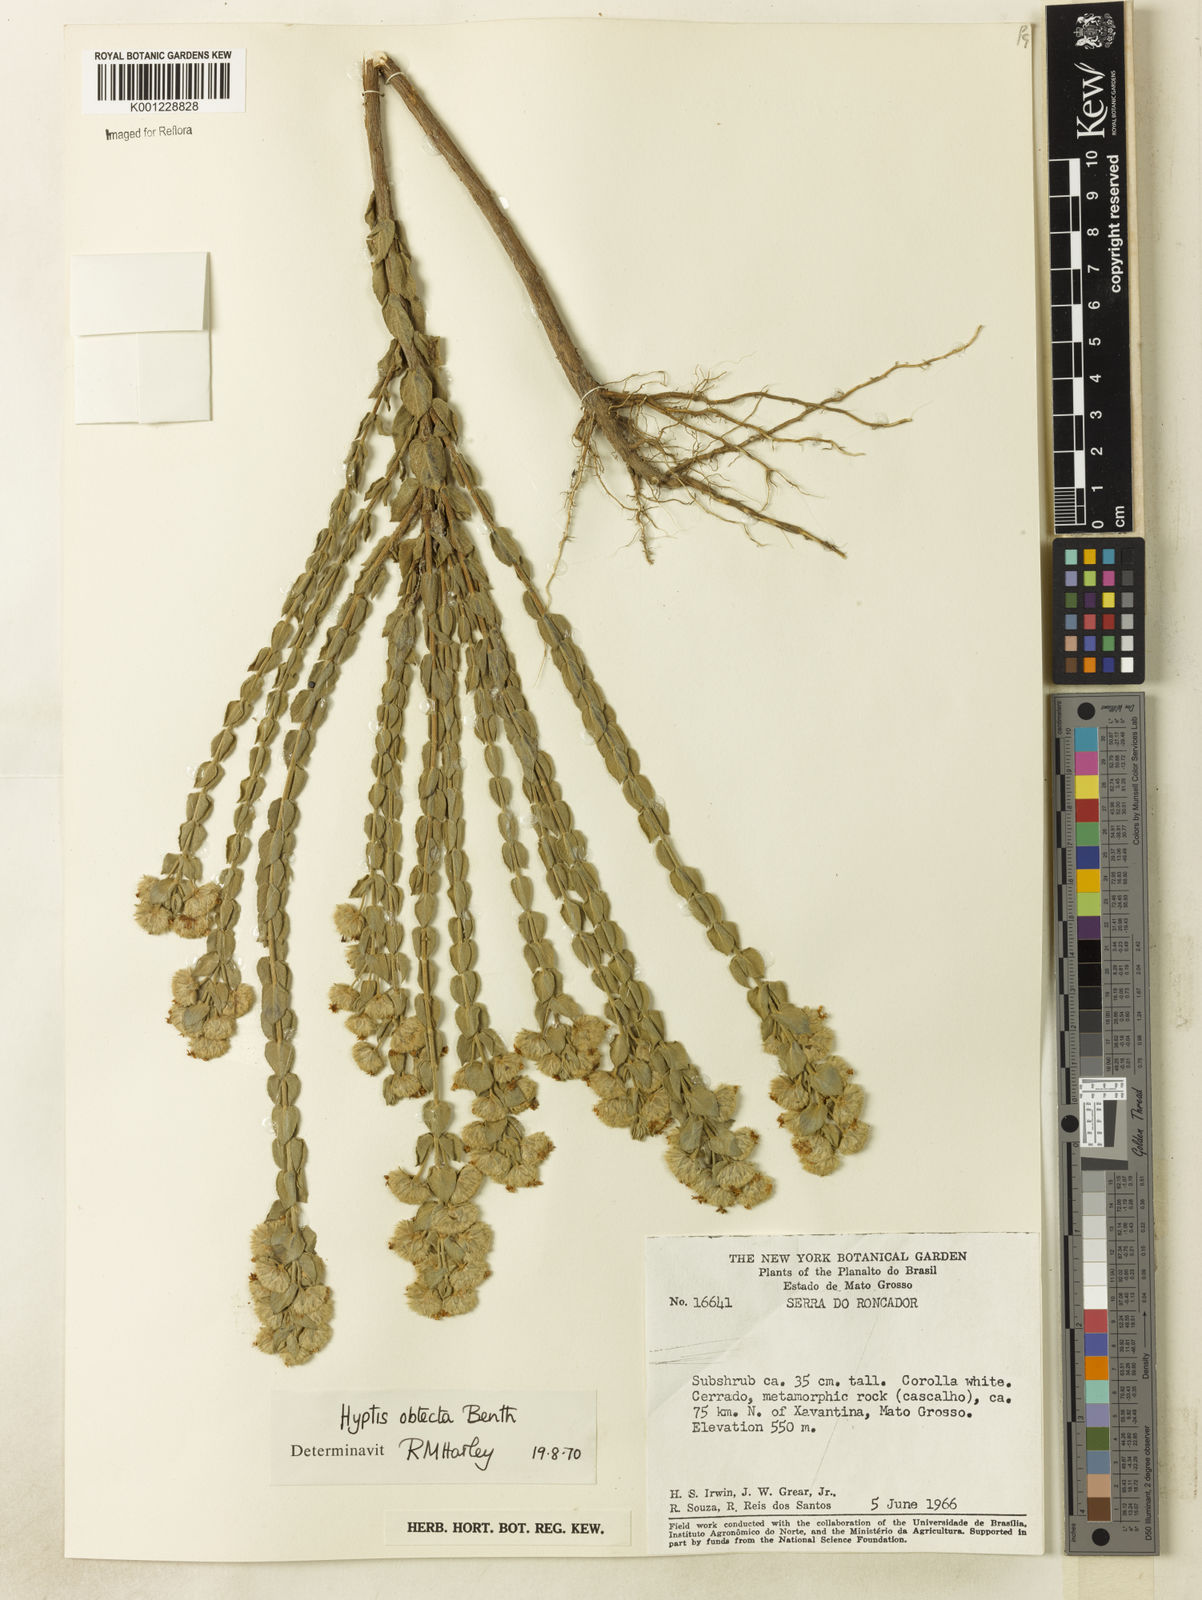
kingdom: Plantae
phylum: Tracheophyta
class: Magnoliopsida
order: Lamiales
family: Lamiaceae
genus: Hyptis
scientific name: Hyptis obtecta
